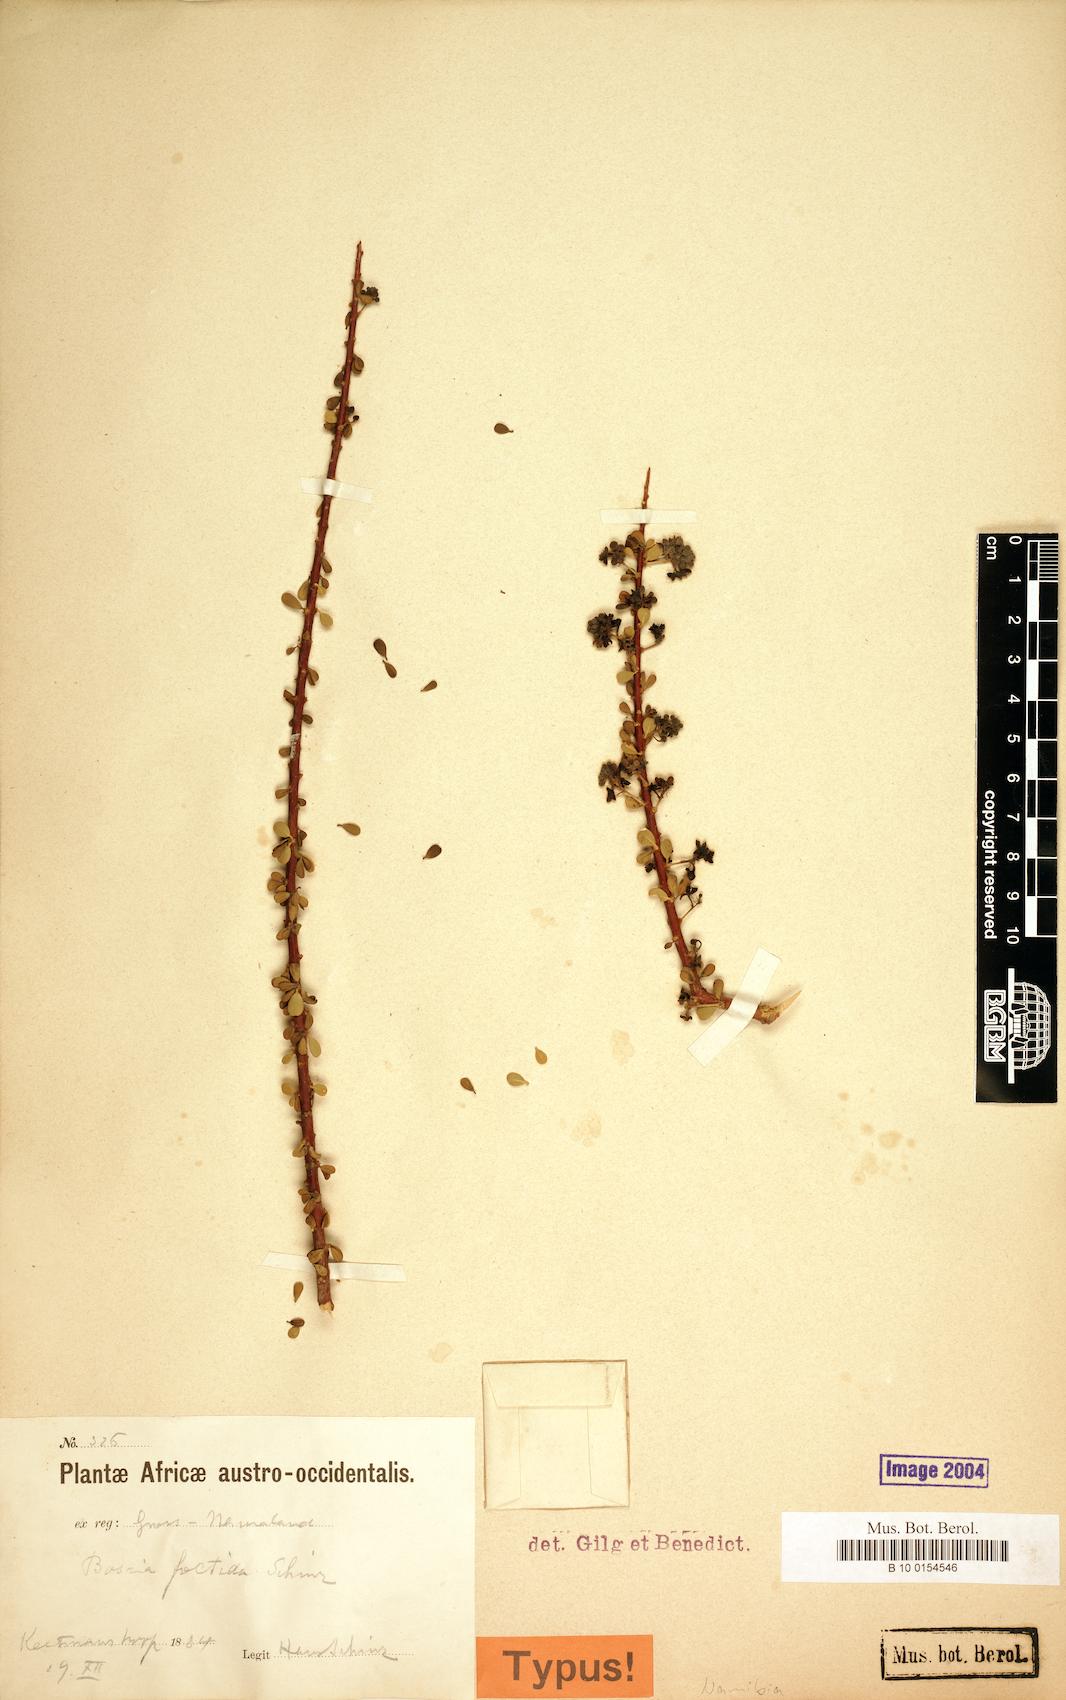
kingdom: Plantae
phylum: Tracheophyta
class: Magnoliopsida
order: Brassicales
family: Capparaceae
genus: Boscia
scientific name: Boscia foetida
